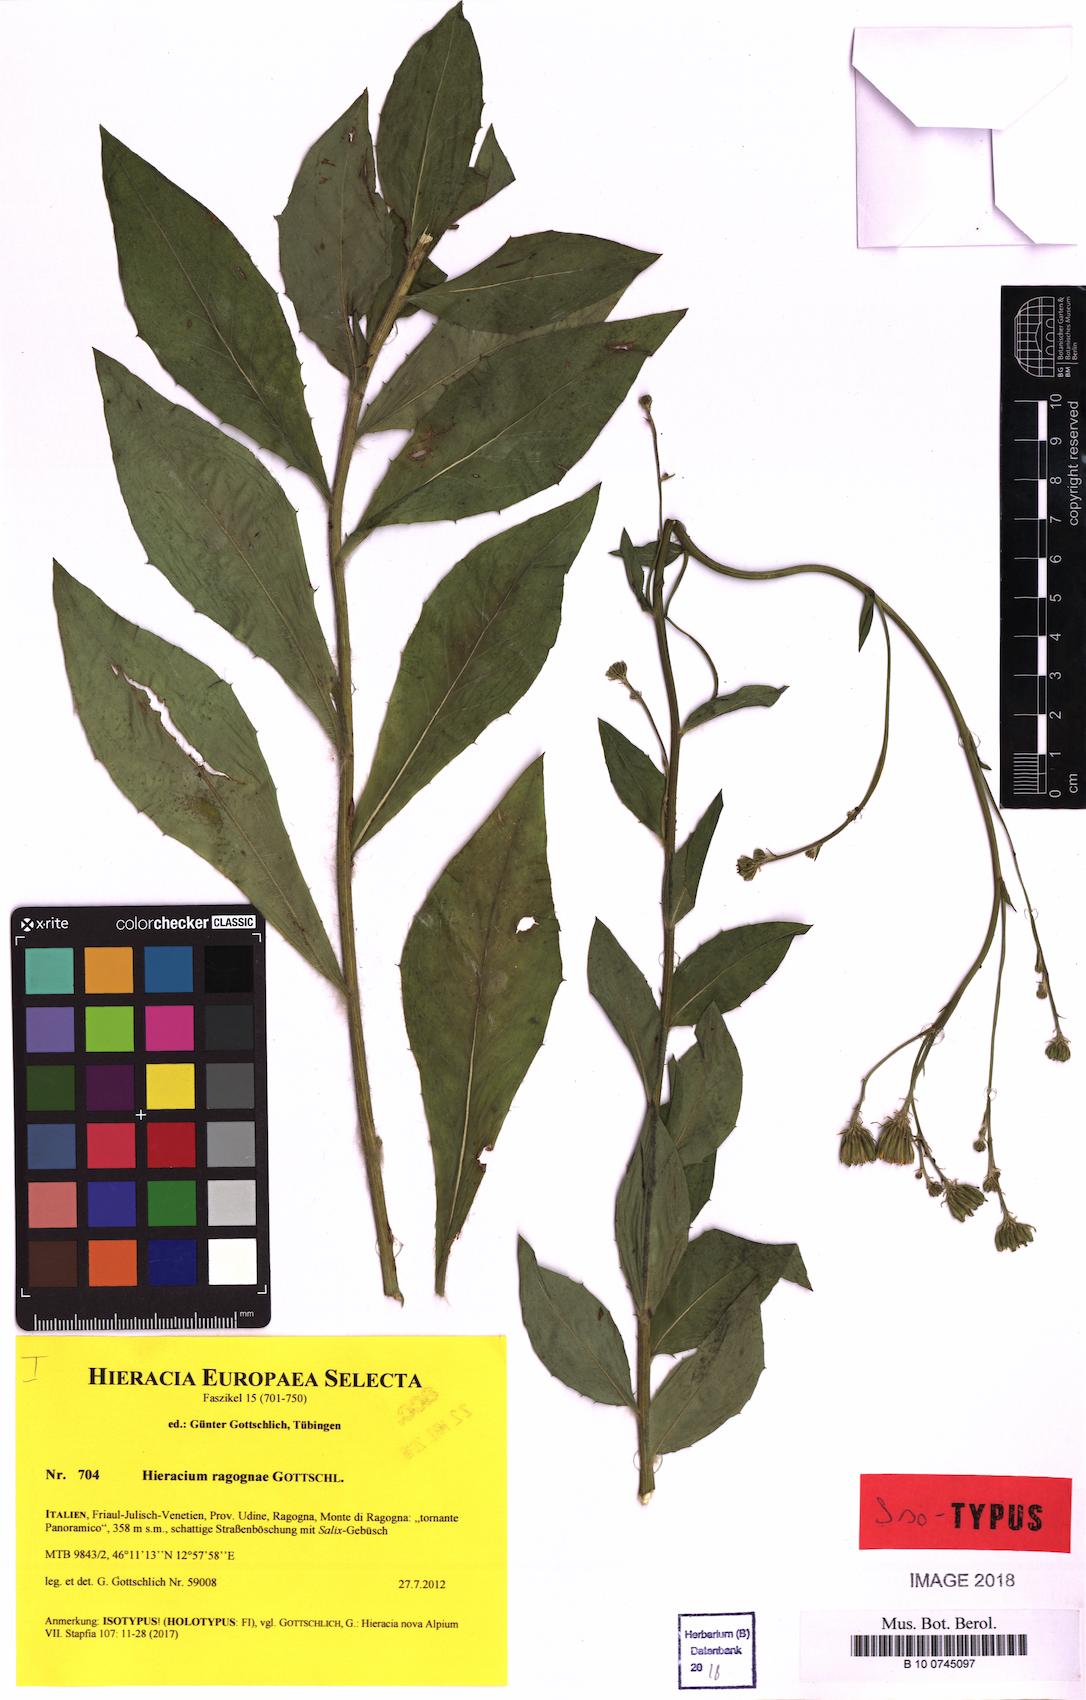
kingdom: Plantae
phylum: Tracheophyta
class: Magnoliopsida
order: Asterales
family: Asteraceae
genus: Hieracium
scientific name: Hieracium ragognae
